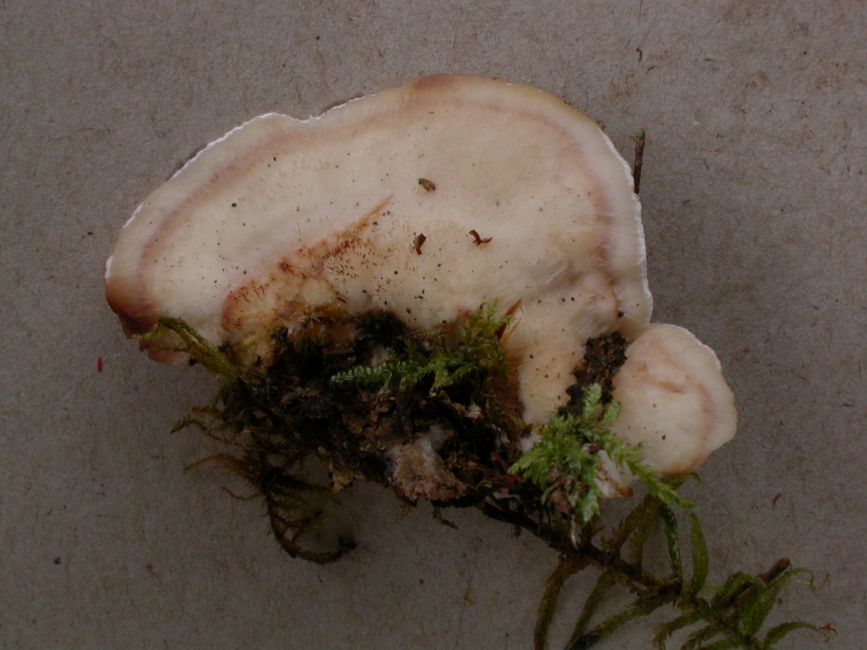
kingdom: Fungi
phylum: Basidiomycota
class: Agaricomycetes
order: Polyporales
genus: Fuscopostia
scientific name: Fuscopostia fragilis
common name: brunende kødporesvamp
